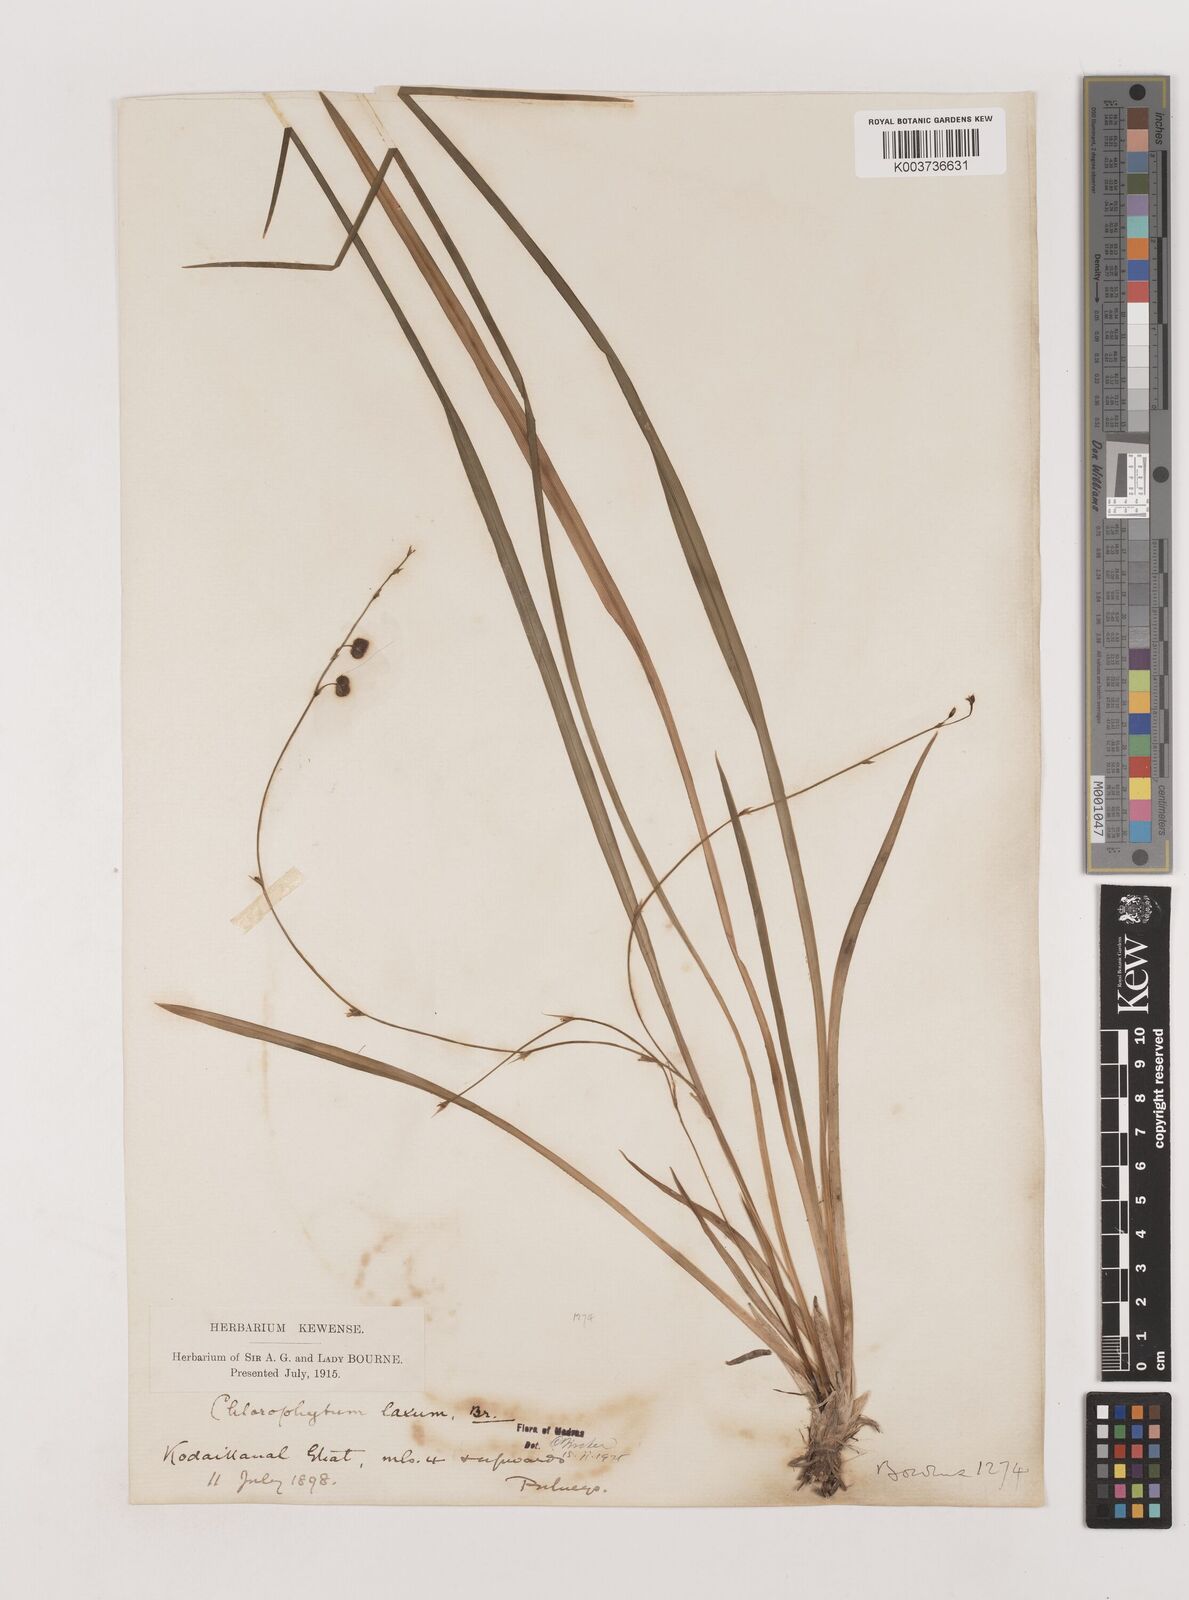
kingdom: Plantae
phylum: Tracheophyta
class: Liliopsida
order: Asparagales
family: Asparagaceae
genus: Chlorophytum
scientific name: Chlorophytum laxum
